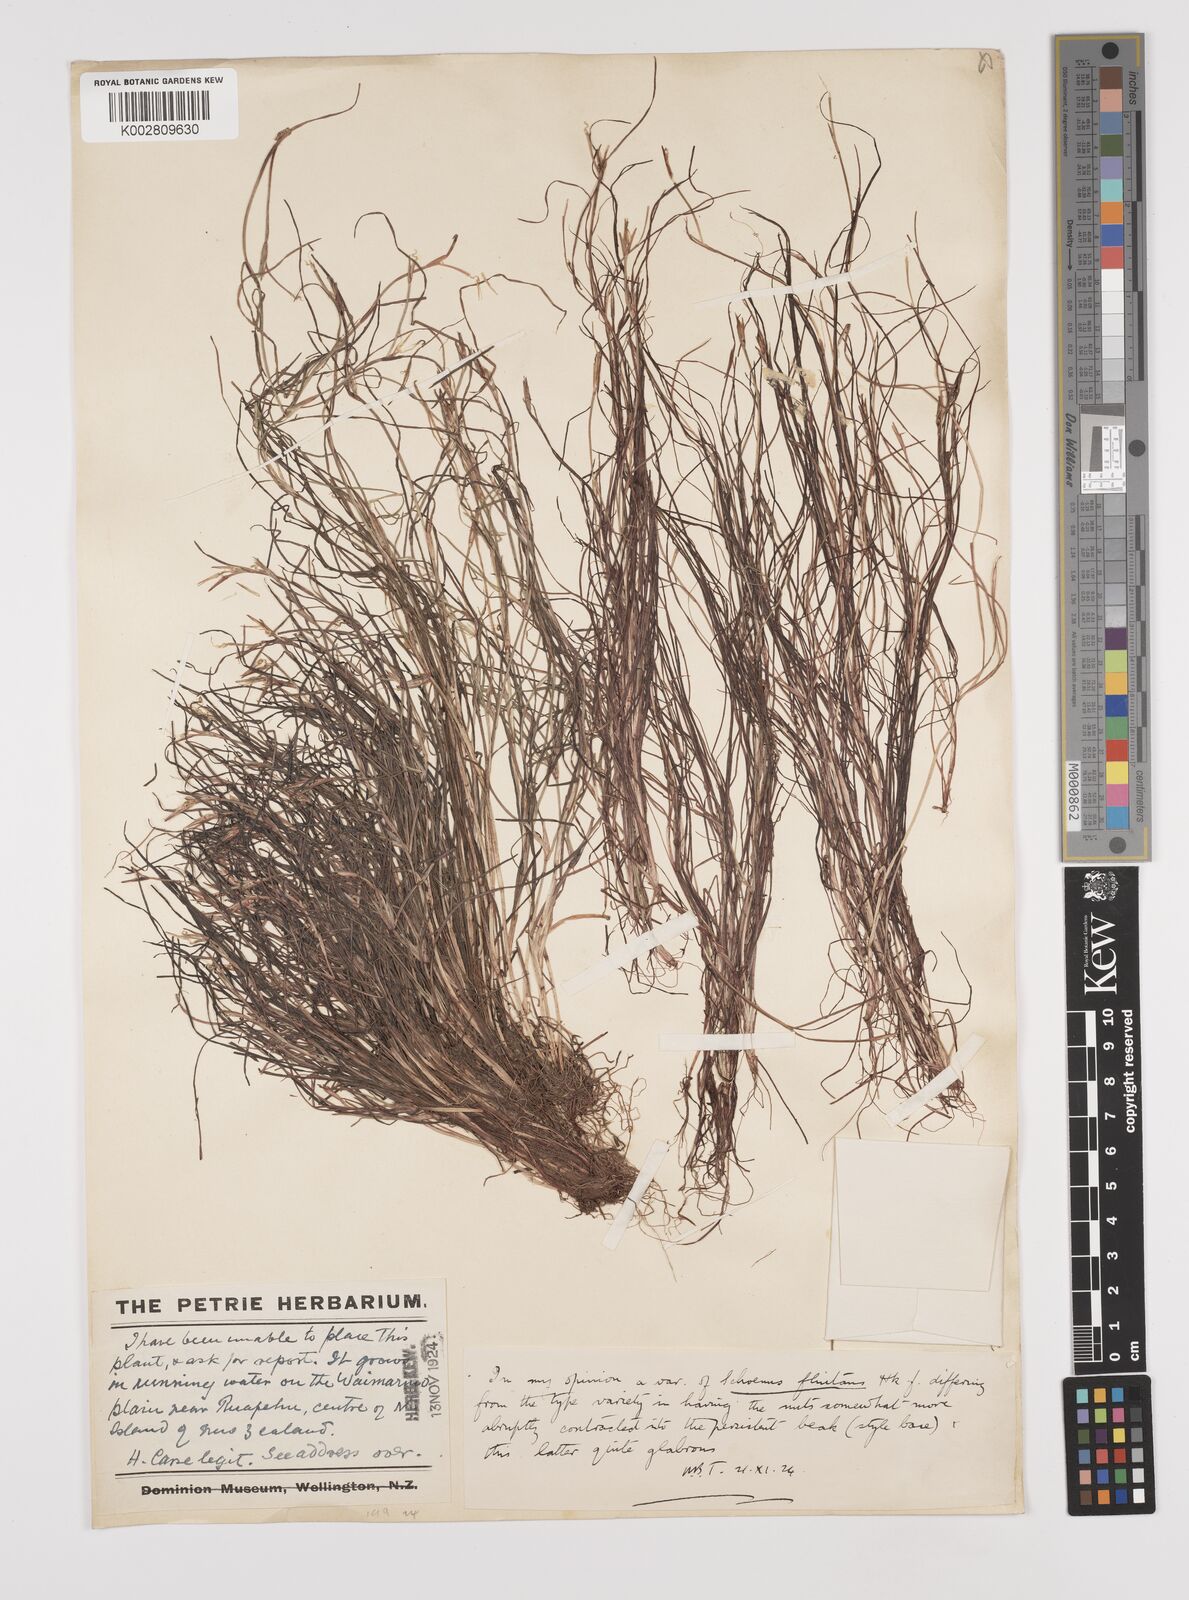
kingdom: Plantae
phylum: Tracheophyta
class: Liliopsida
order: Poales
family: Cyperaceae
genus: Schoenus
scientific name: Schoenus
